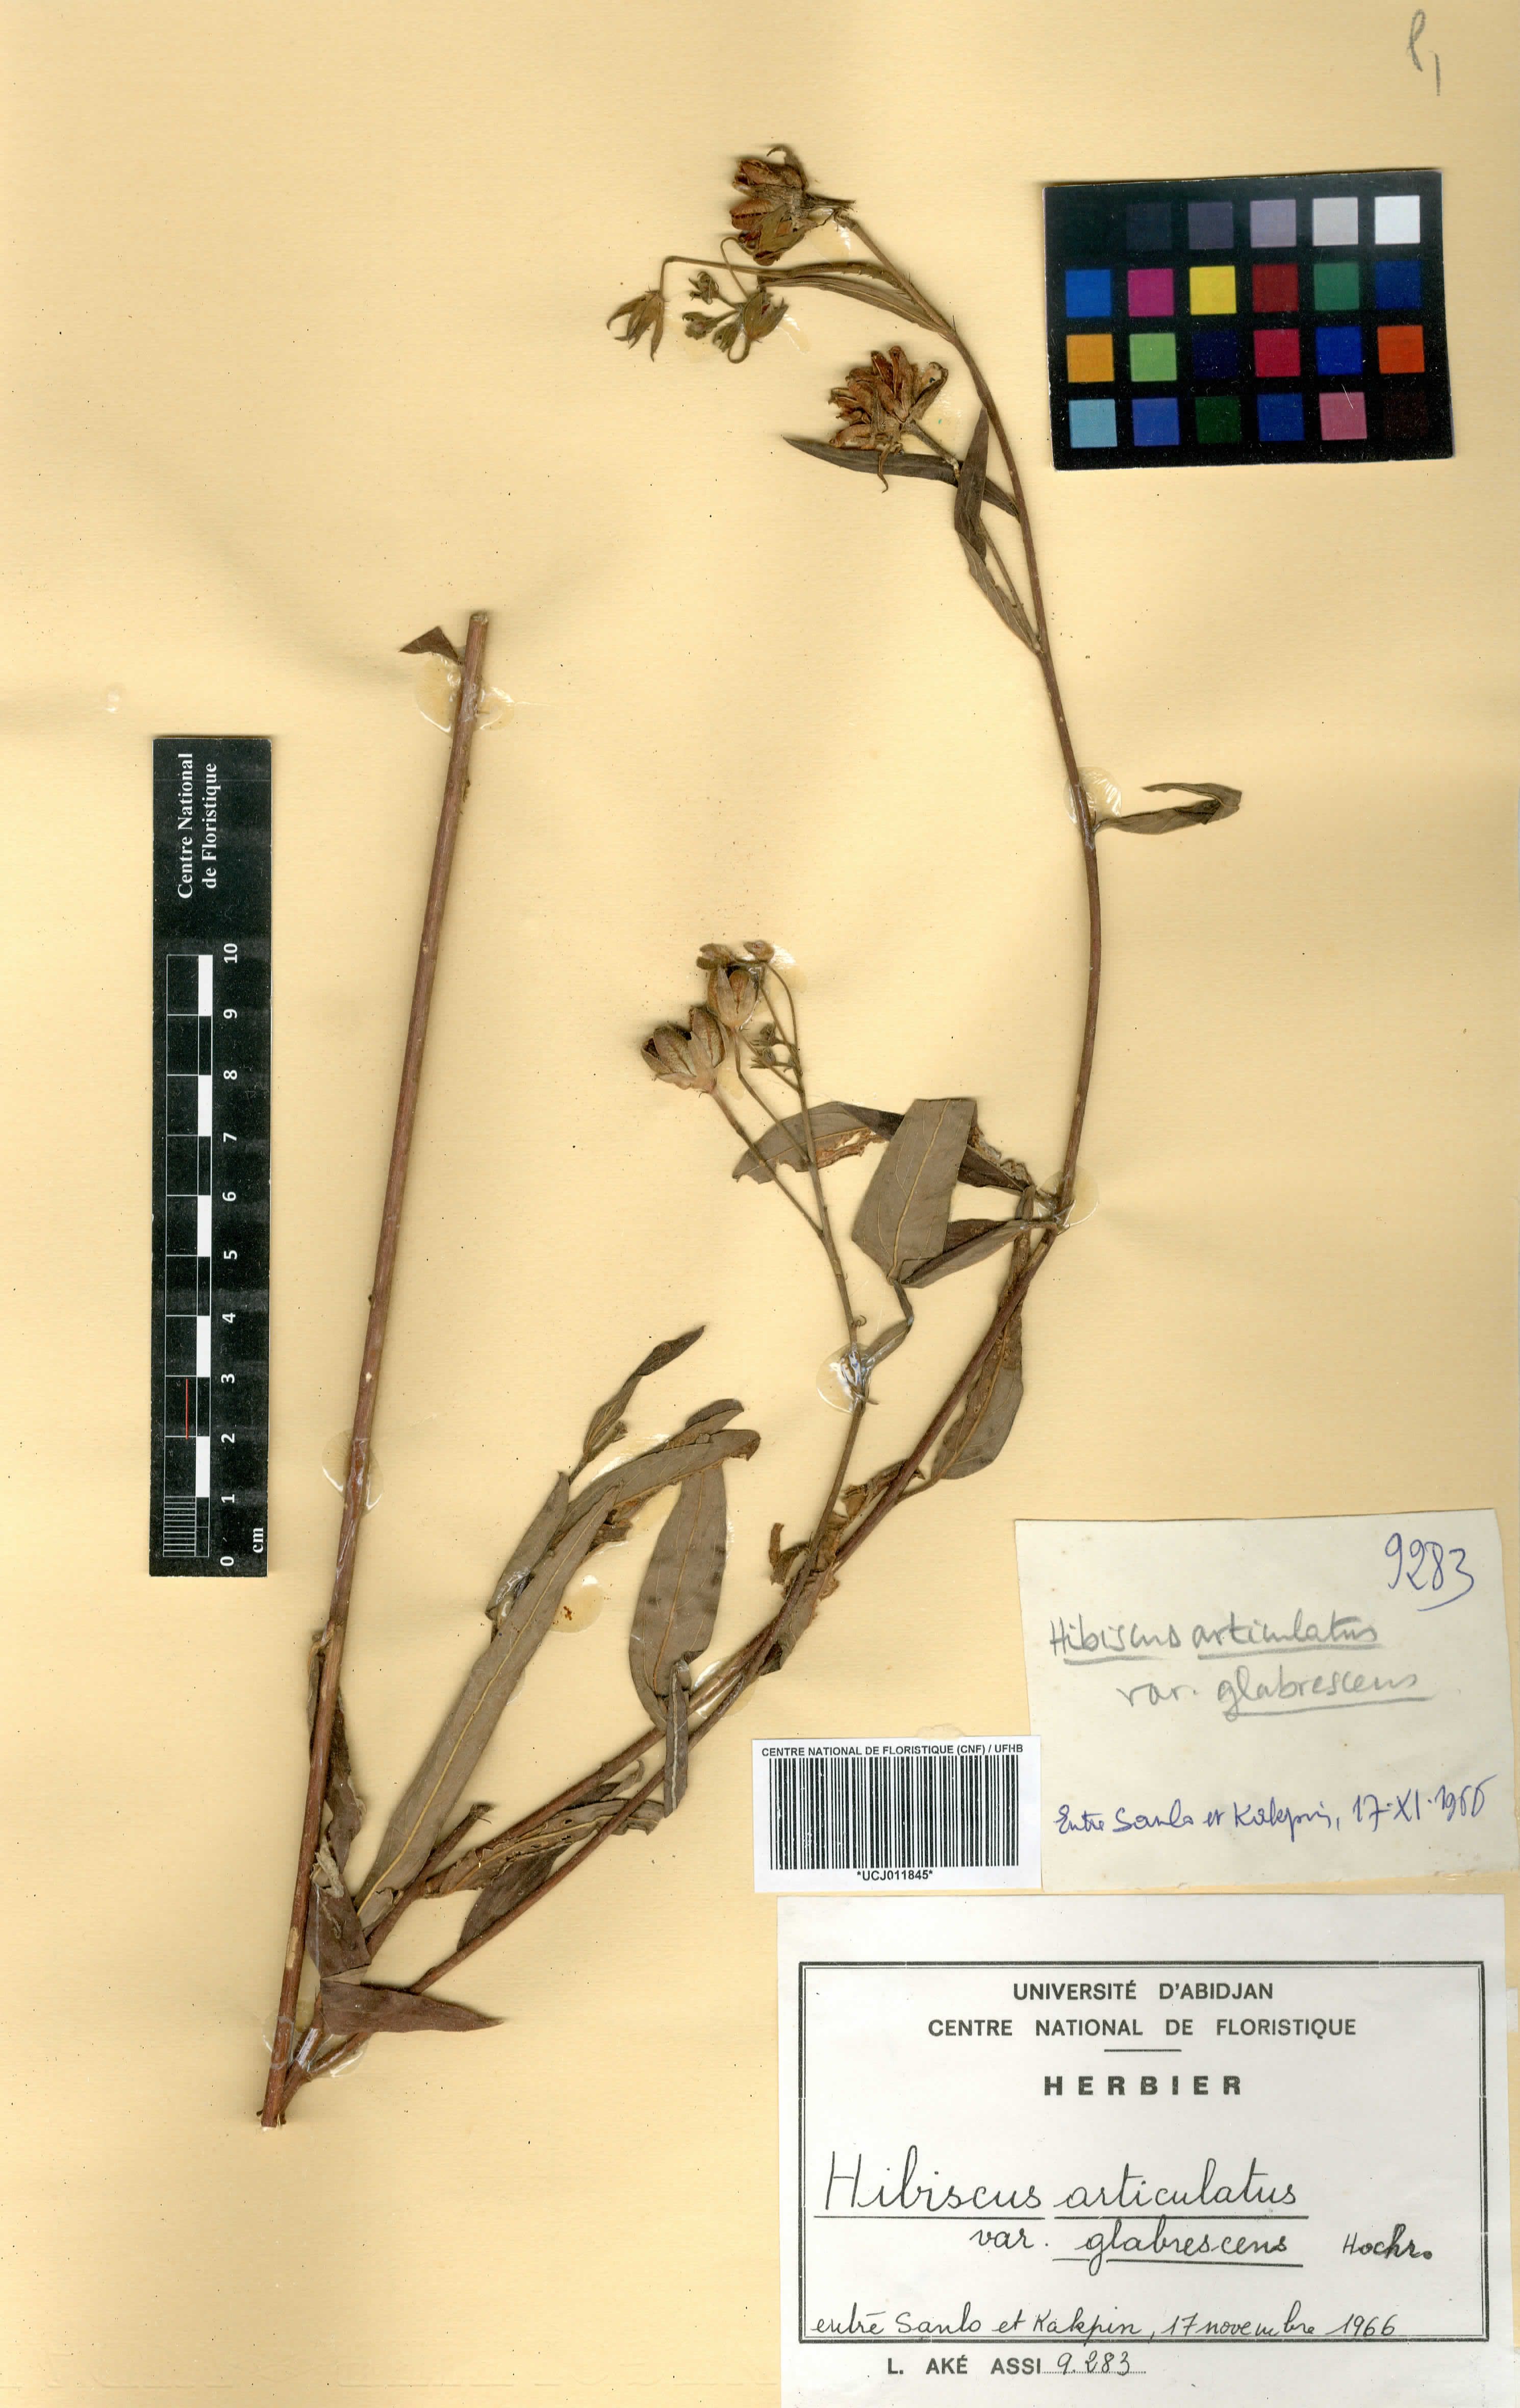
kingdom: Plantae
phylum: Tracheophyta
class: Magnoliopsida
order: Malvales
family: Malvaceae
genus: Hibiscus
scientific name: Hibiscus articulatus
